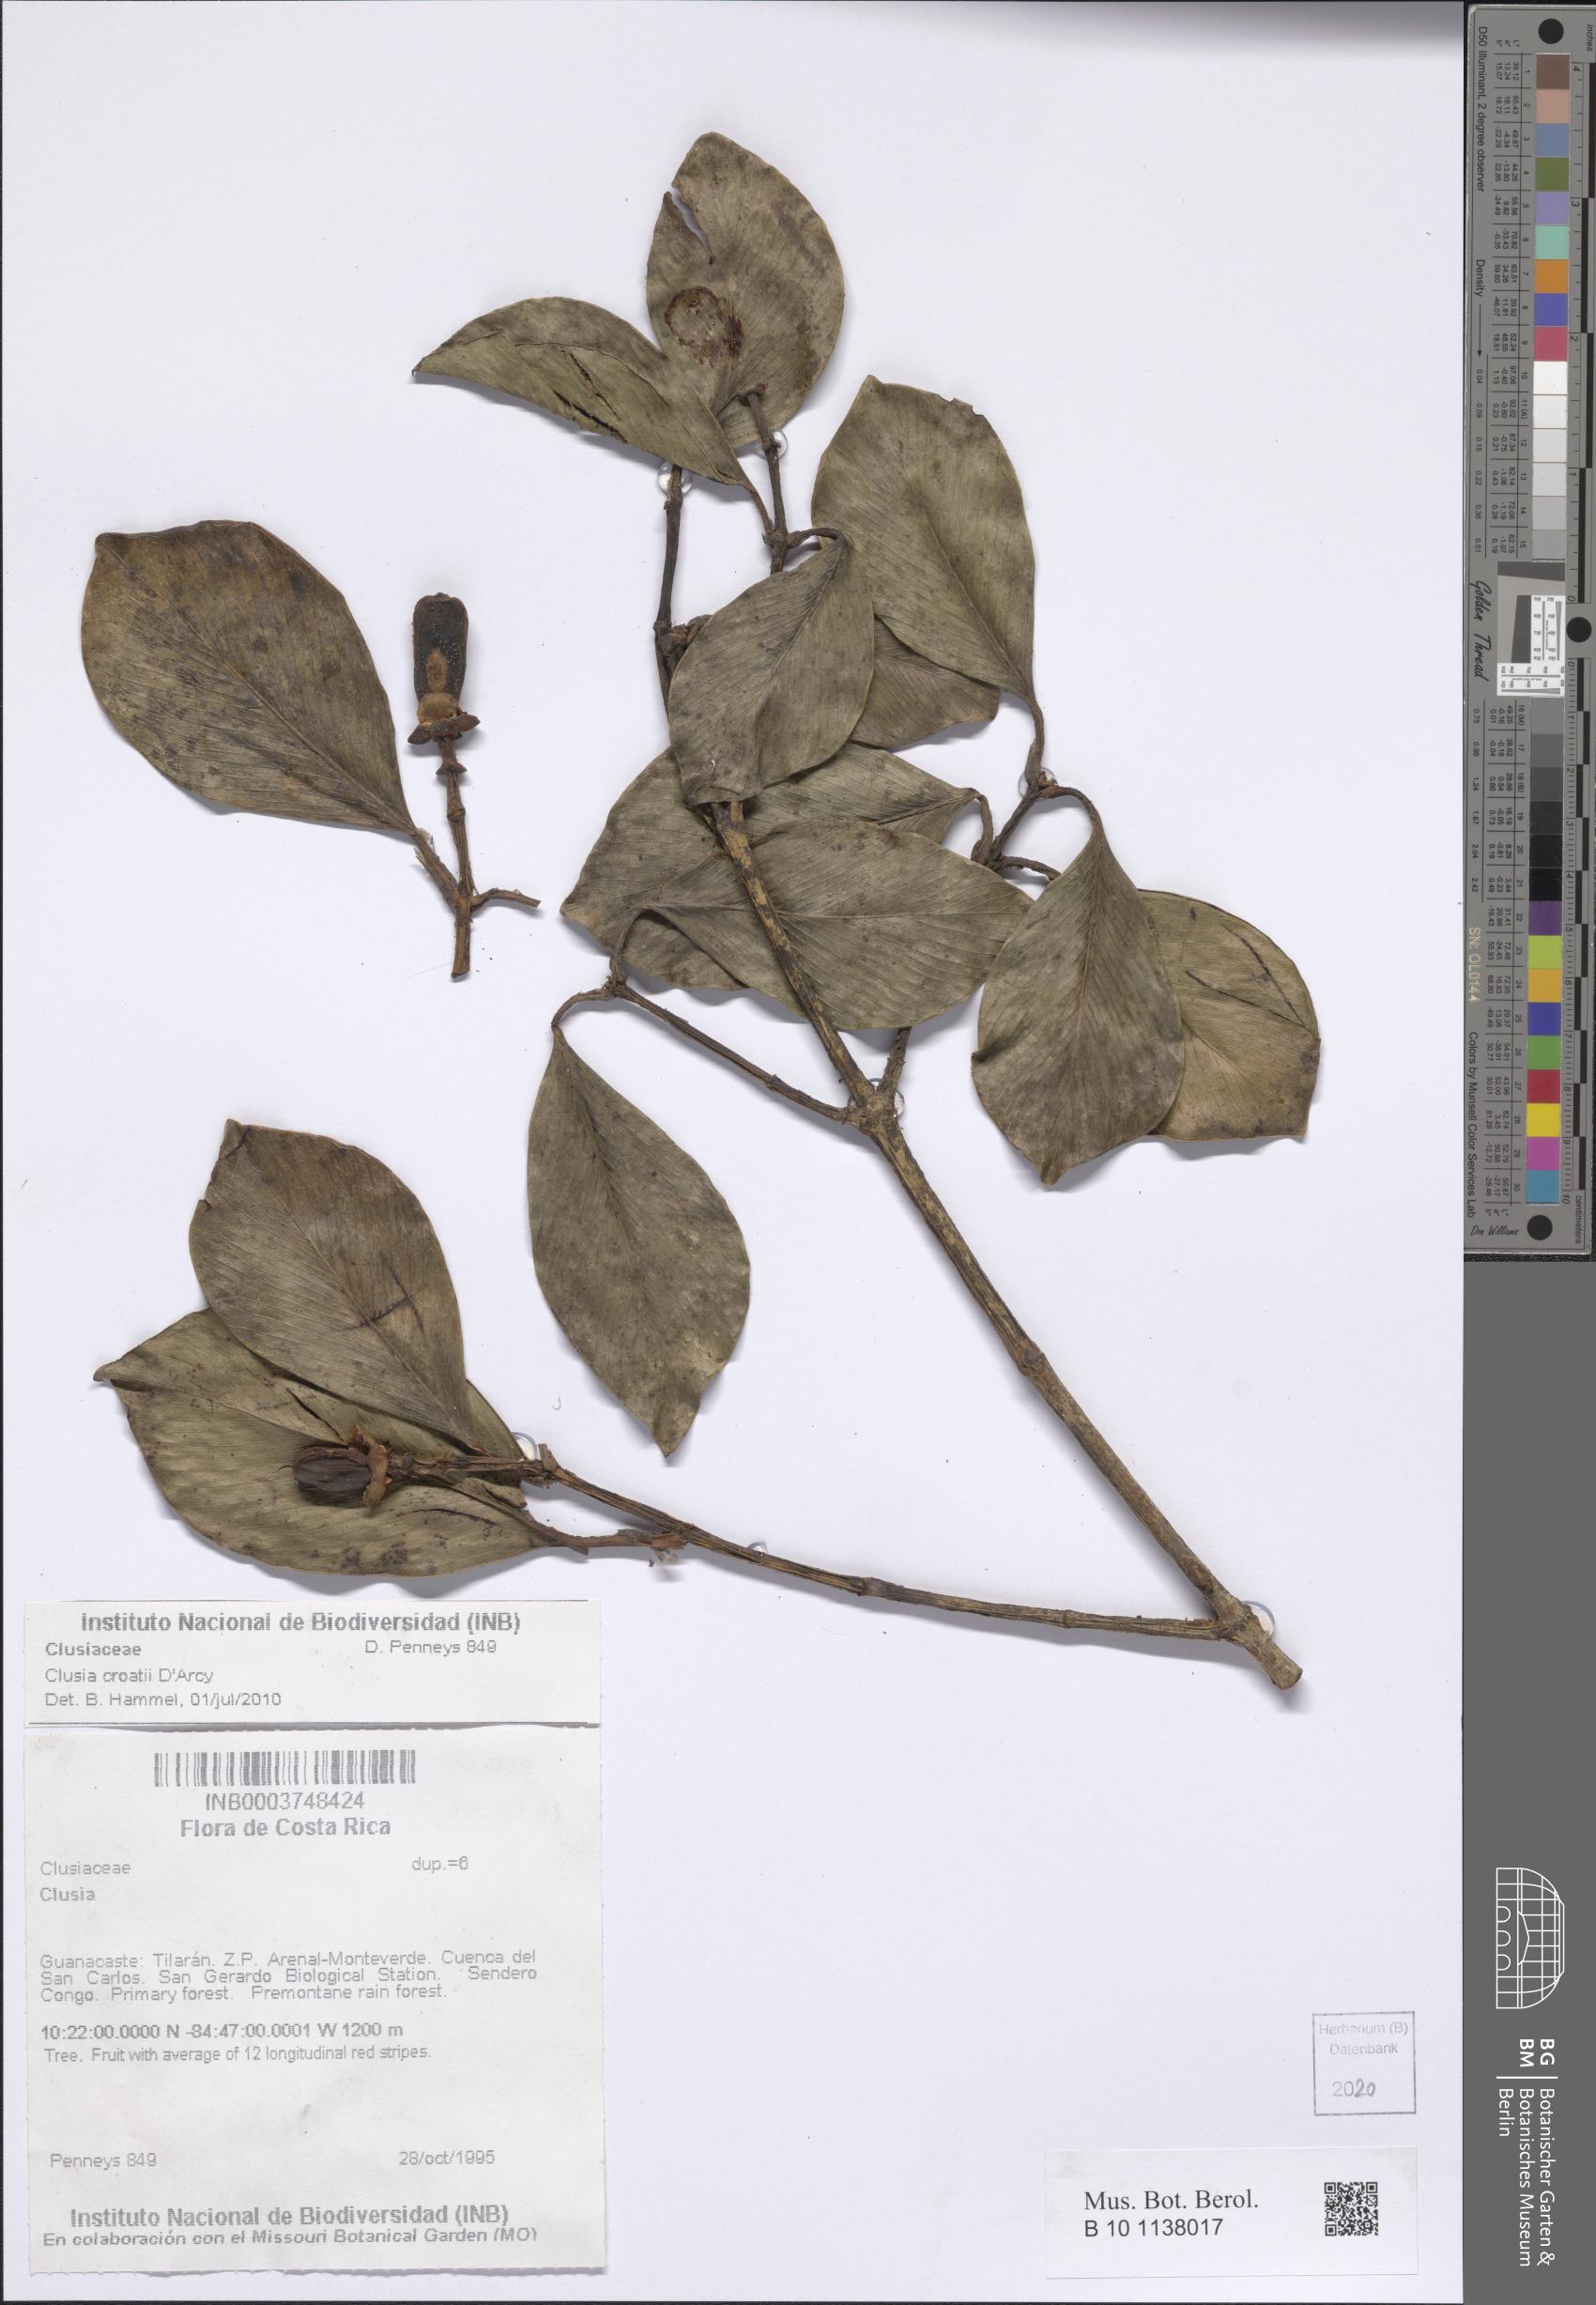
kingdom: Plantae
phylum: Tracheophyta
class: Magnoliopsida
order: Malpighiales
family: Clusiaceae
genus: Clusia
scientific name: Clusia croatii
